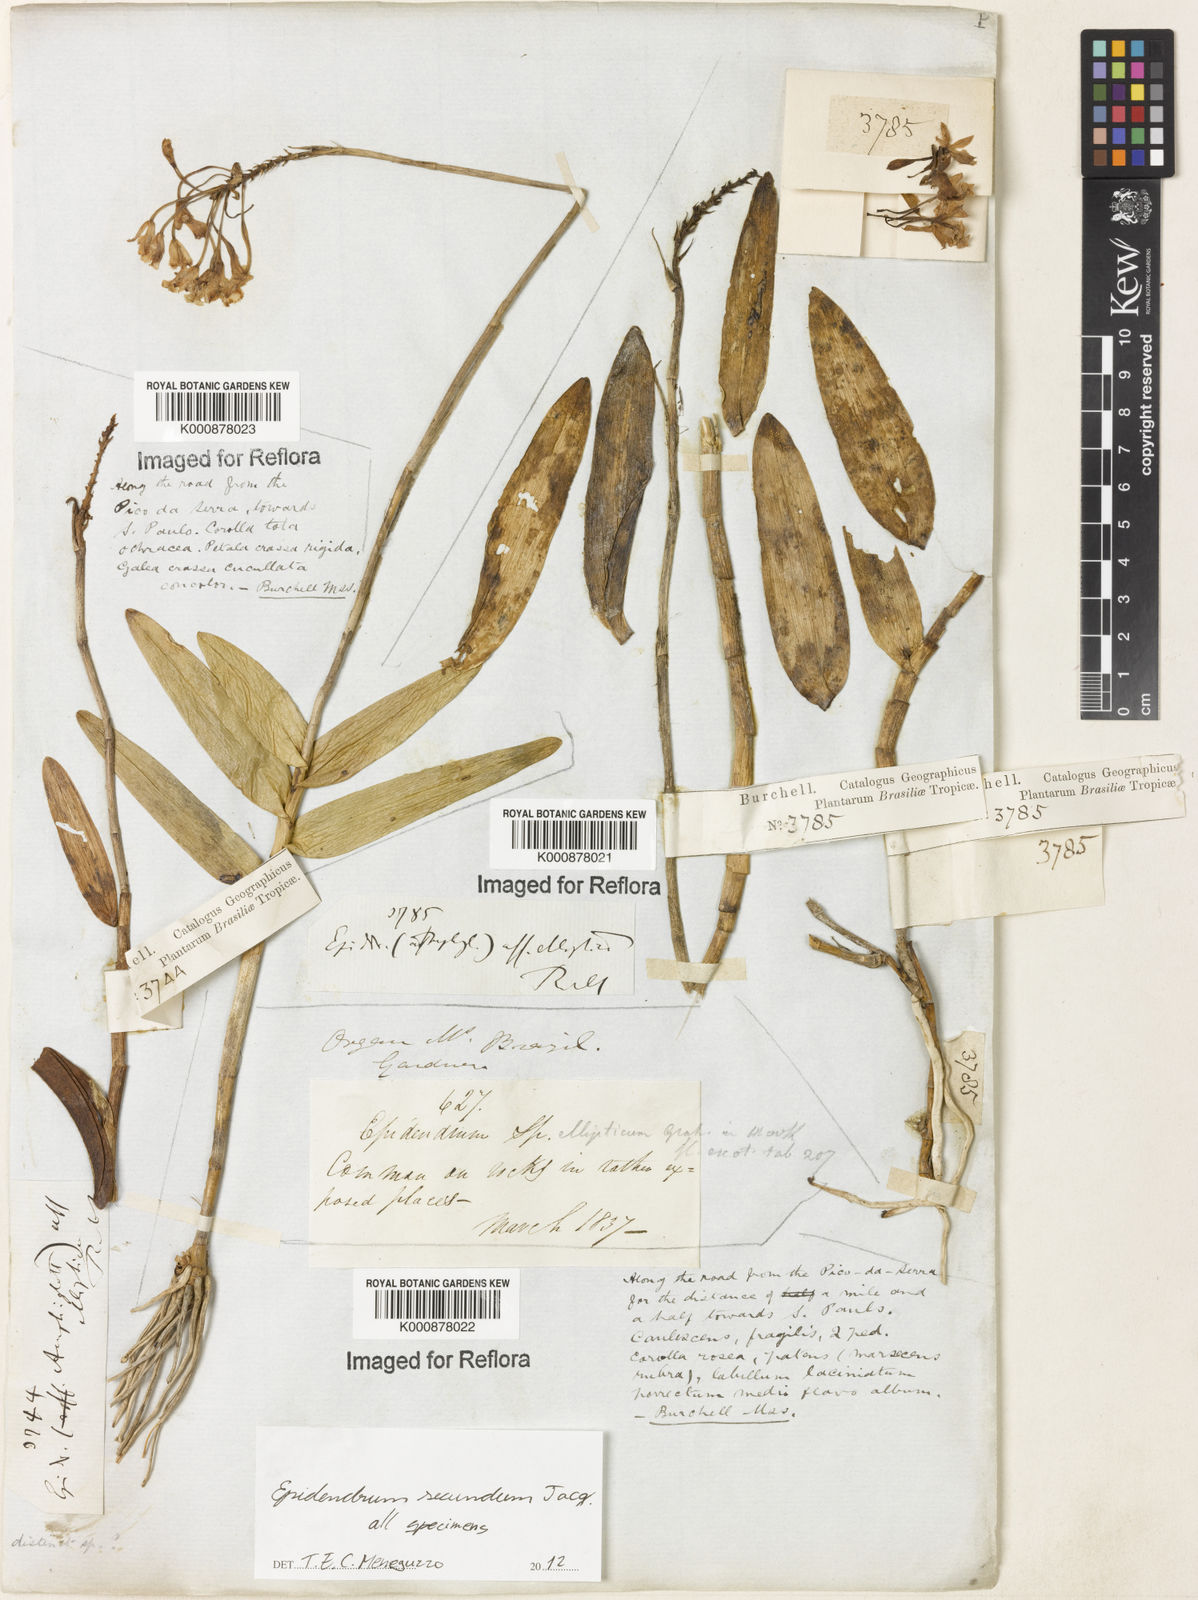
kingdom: Plantae
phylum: Tracheophyta
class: Liliopsida
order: Asparagales
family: Orchidaceae
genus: Epidendrum
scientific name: Epidendrum secundum
